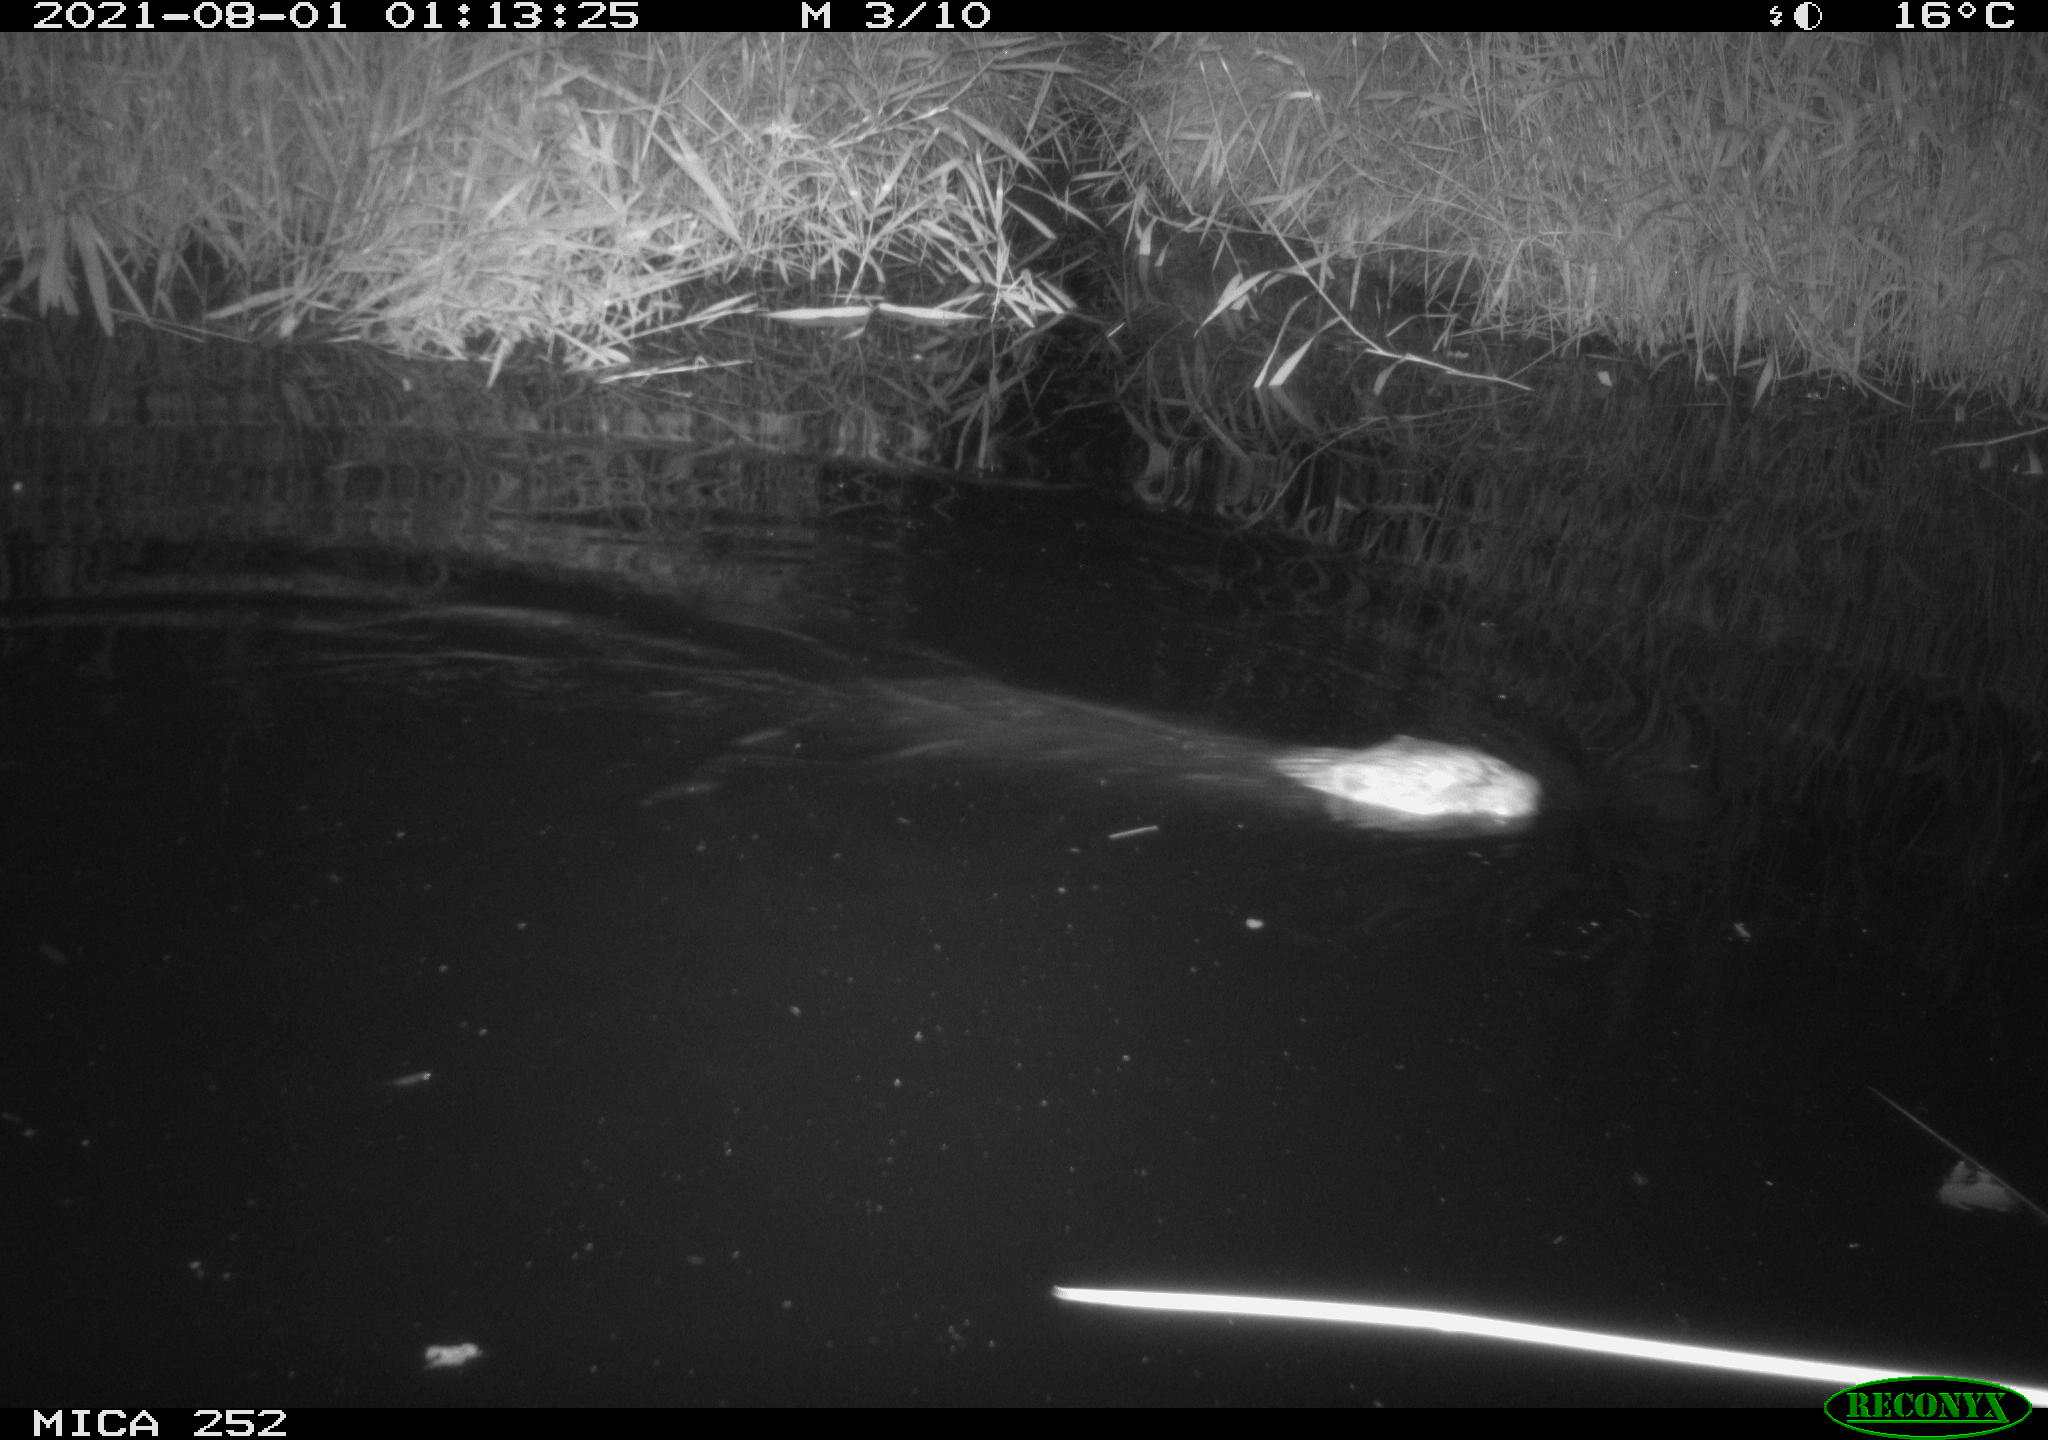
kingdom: Animalia
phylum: Chordata
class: Mammalia
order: Rodentia
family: Castoridae
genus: Castor
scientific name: Castor fiber
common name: Eurasian beaver
